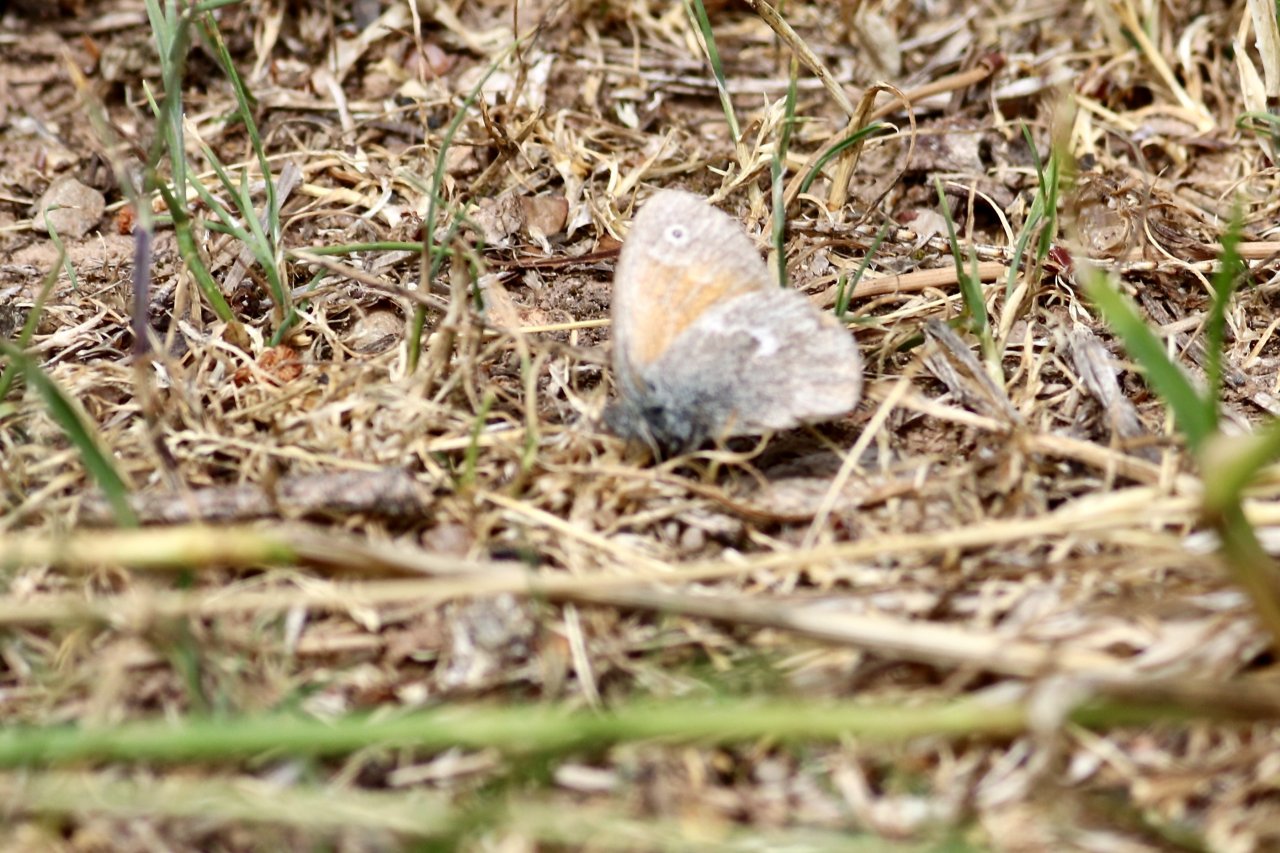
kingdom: Animalia
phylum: Arthropoda
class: Insecta
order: Lepidoptera
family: Nymphalidae
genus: Coenonympha
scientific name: Coenonympha tullia
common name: Large Heath
